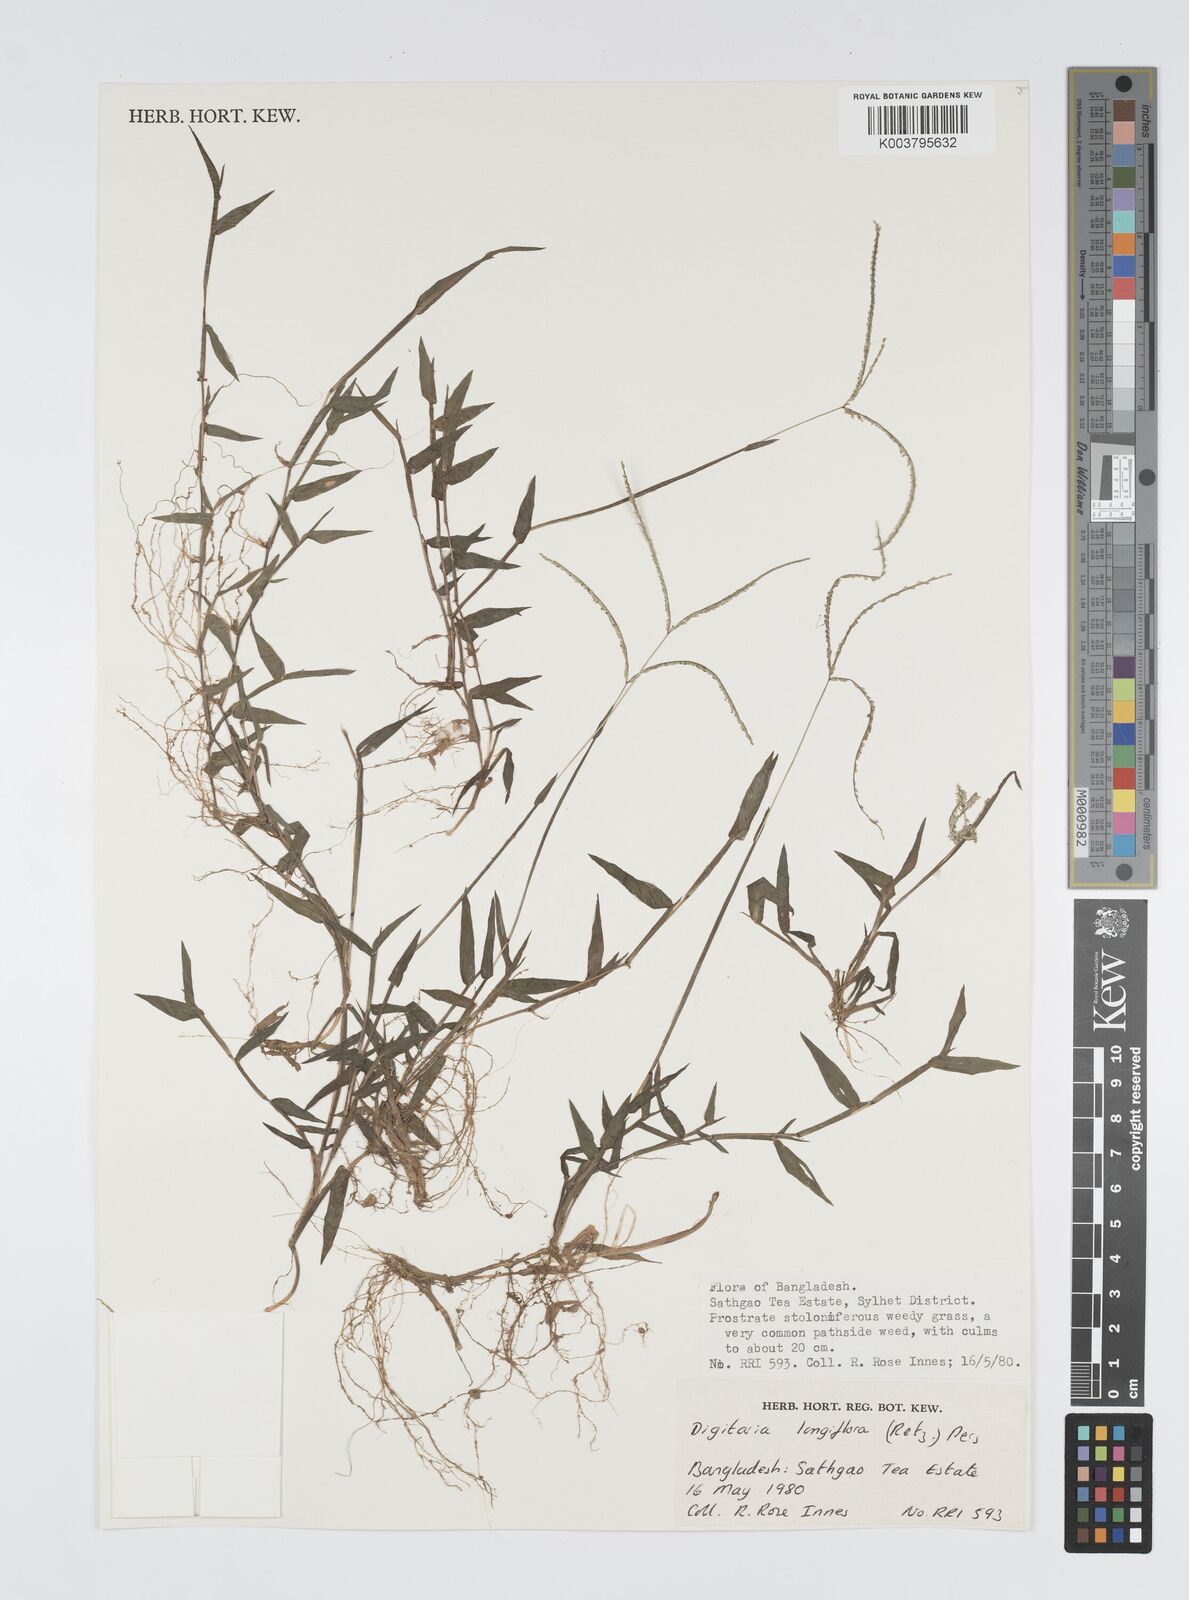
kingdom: Plantae
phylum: Tracheophyta
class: Liliopsida
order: Poales
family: Poaceae
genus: Digitaria
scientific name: Digitaria longiflora
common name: Wire crabgrass
